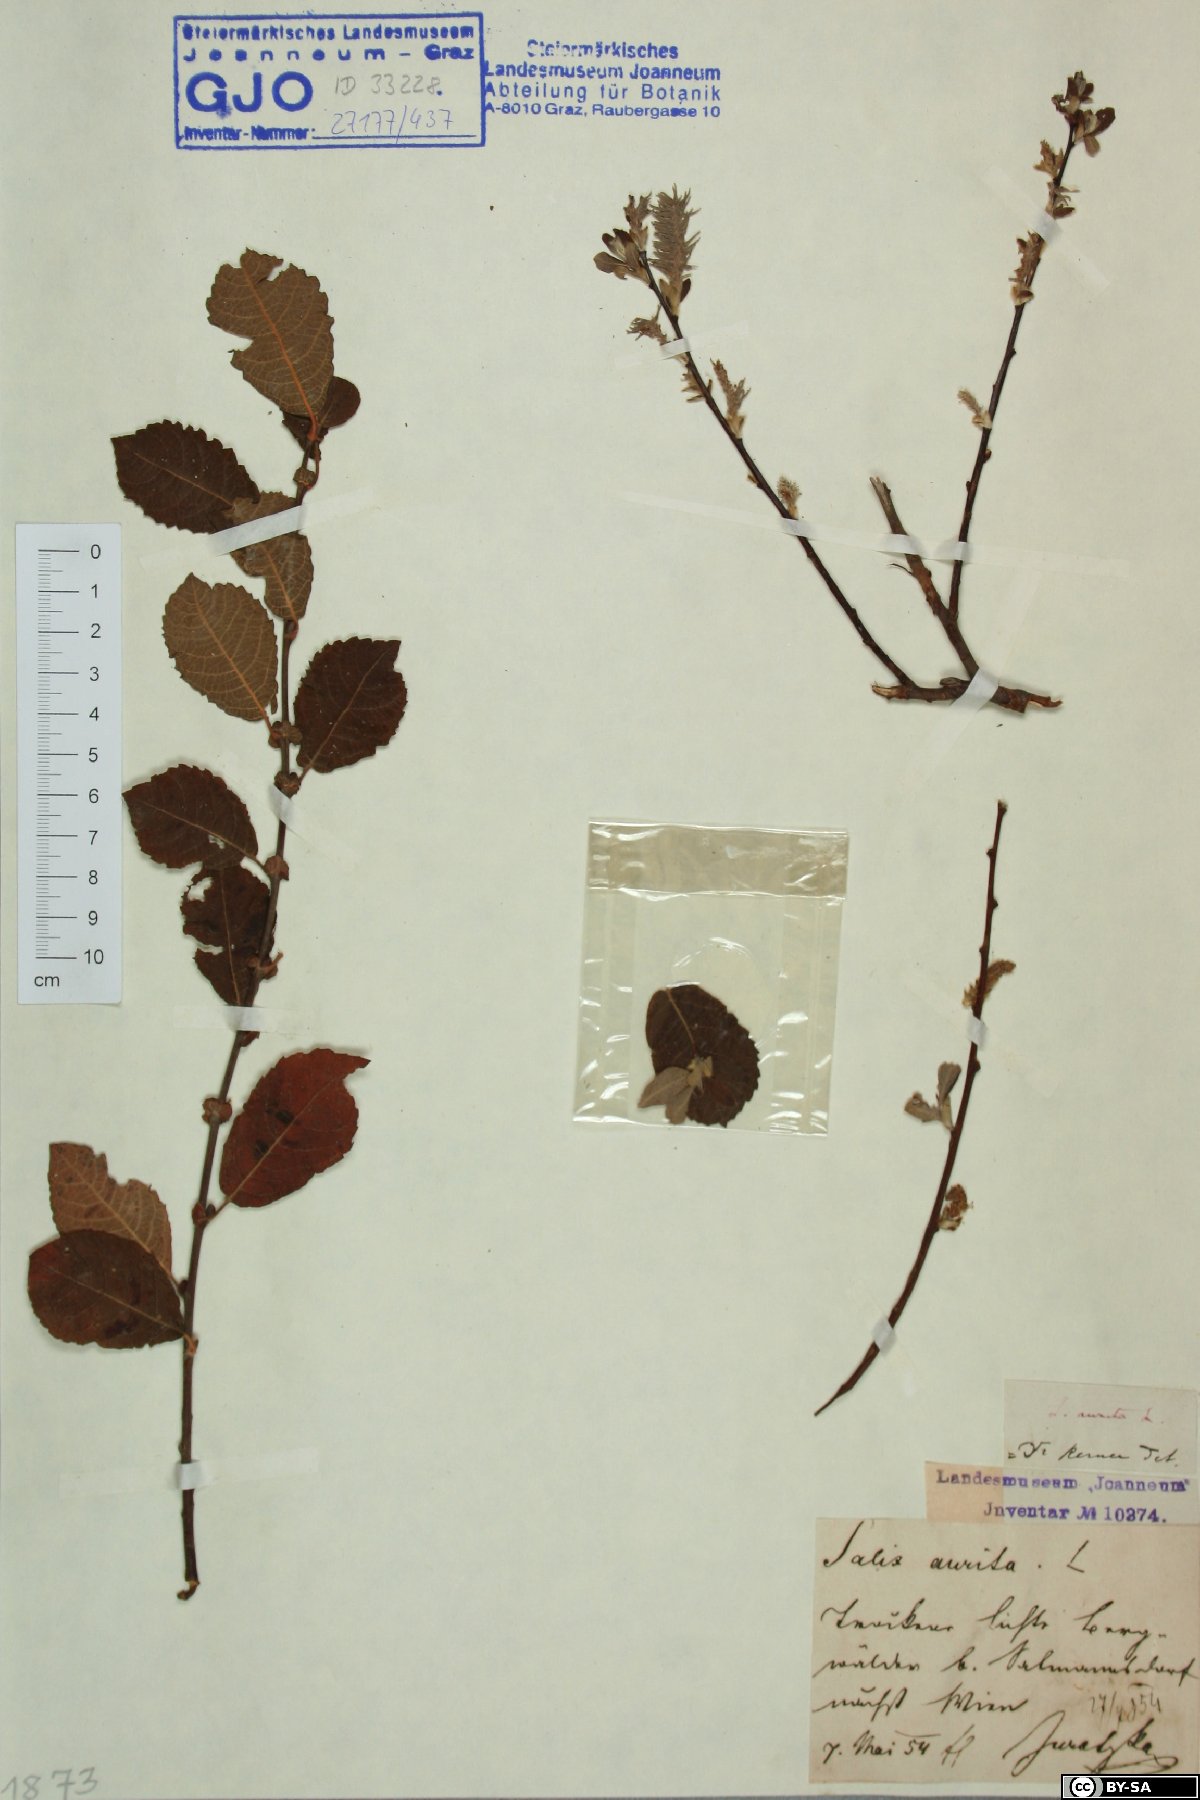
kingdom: Plantae
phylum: Tracheophyta
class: Magnoliopsida
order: Malpighiales
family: Salicaceae
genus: Salix
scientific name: Salix aurita
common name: Eared willow
